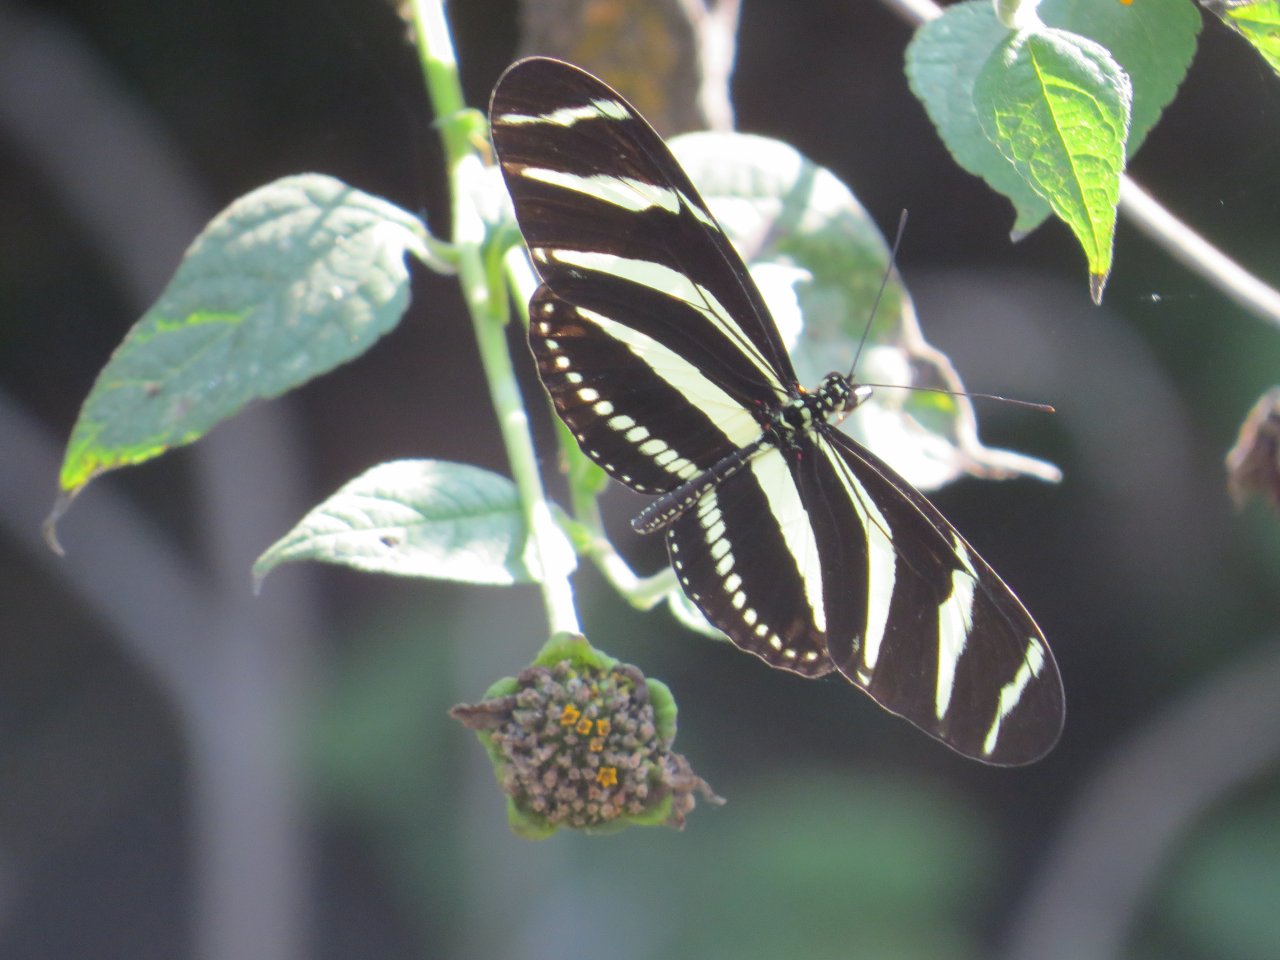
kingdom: Animalia
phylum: Arthropoda
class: Insecta
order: Lepidoptera
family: Nymphalidae
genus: Heliconius
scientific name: Heliconius charithonia
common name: Zebra Longwing
